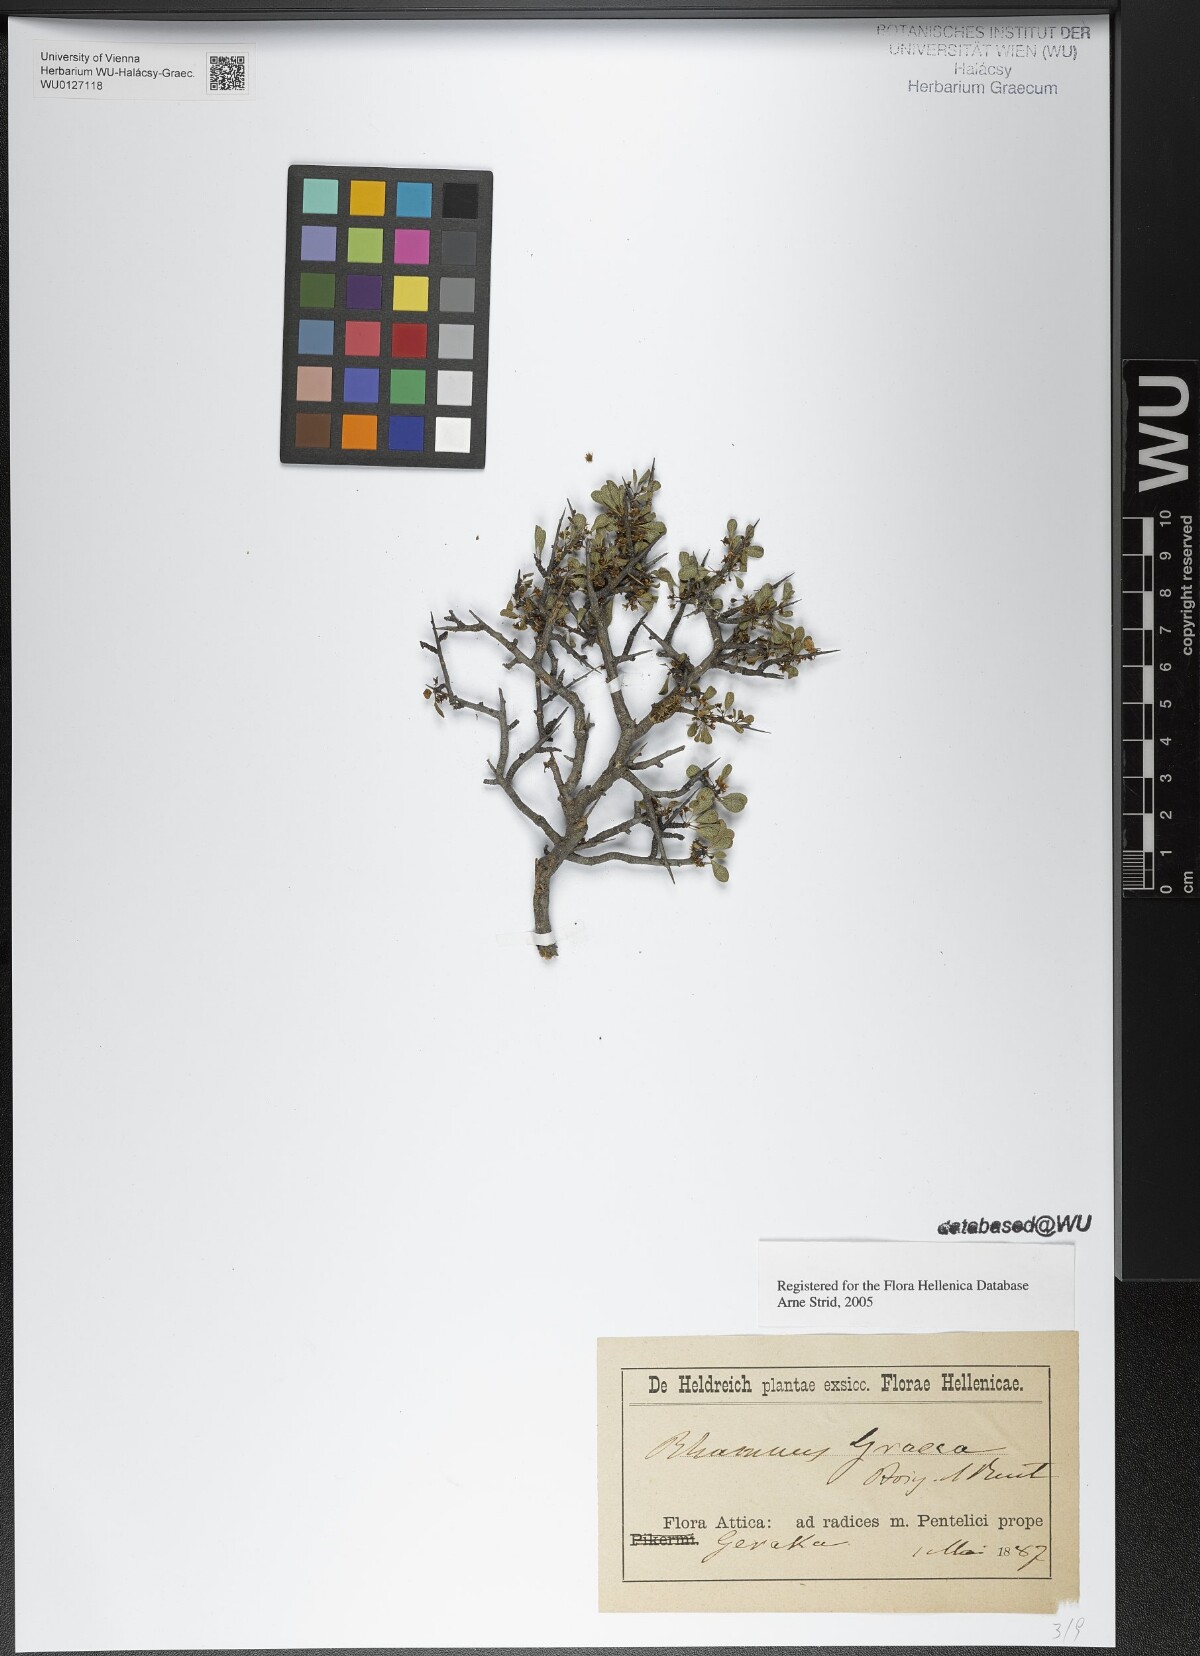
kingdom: Plantae
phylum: Tracheophyta
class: Magnoliopsida
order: Rosales
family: Rhamnaceae
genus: Rhamnus
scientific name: Rhamnus
